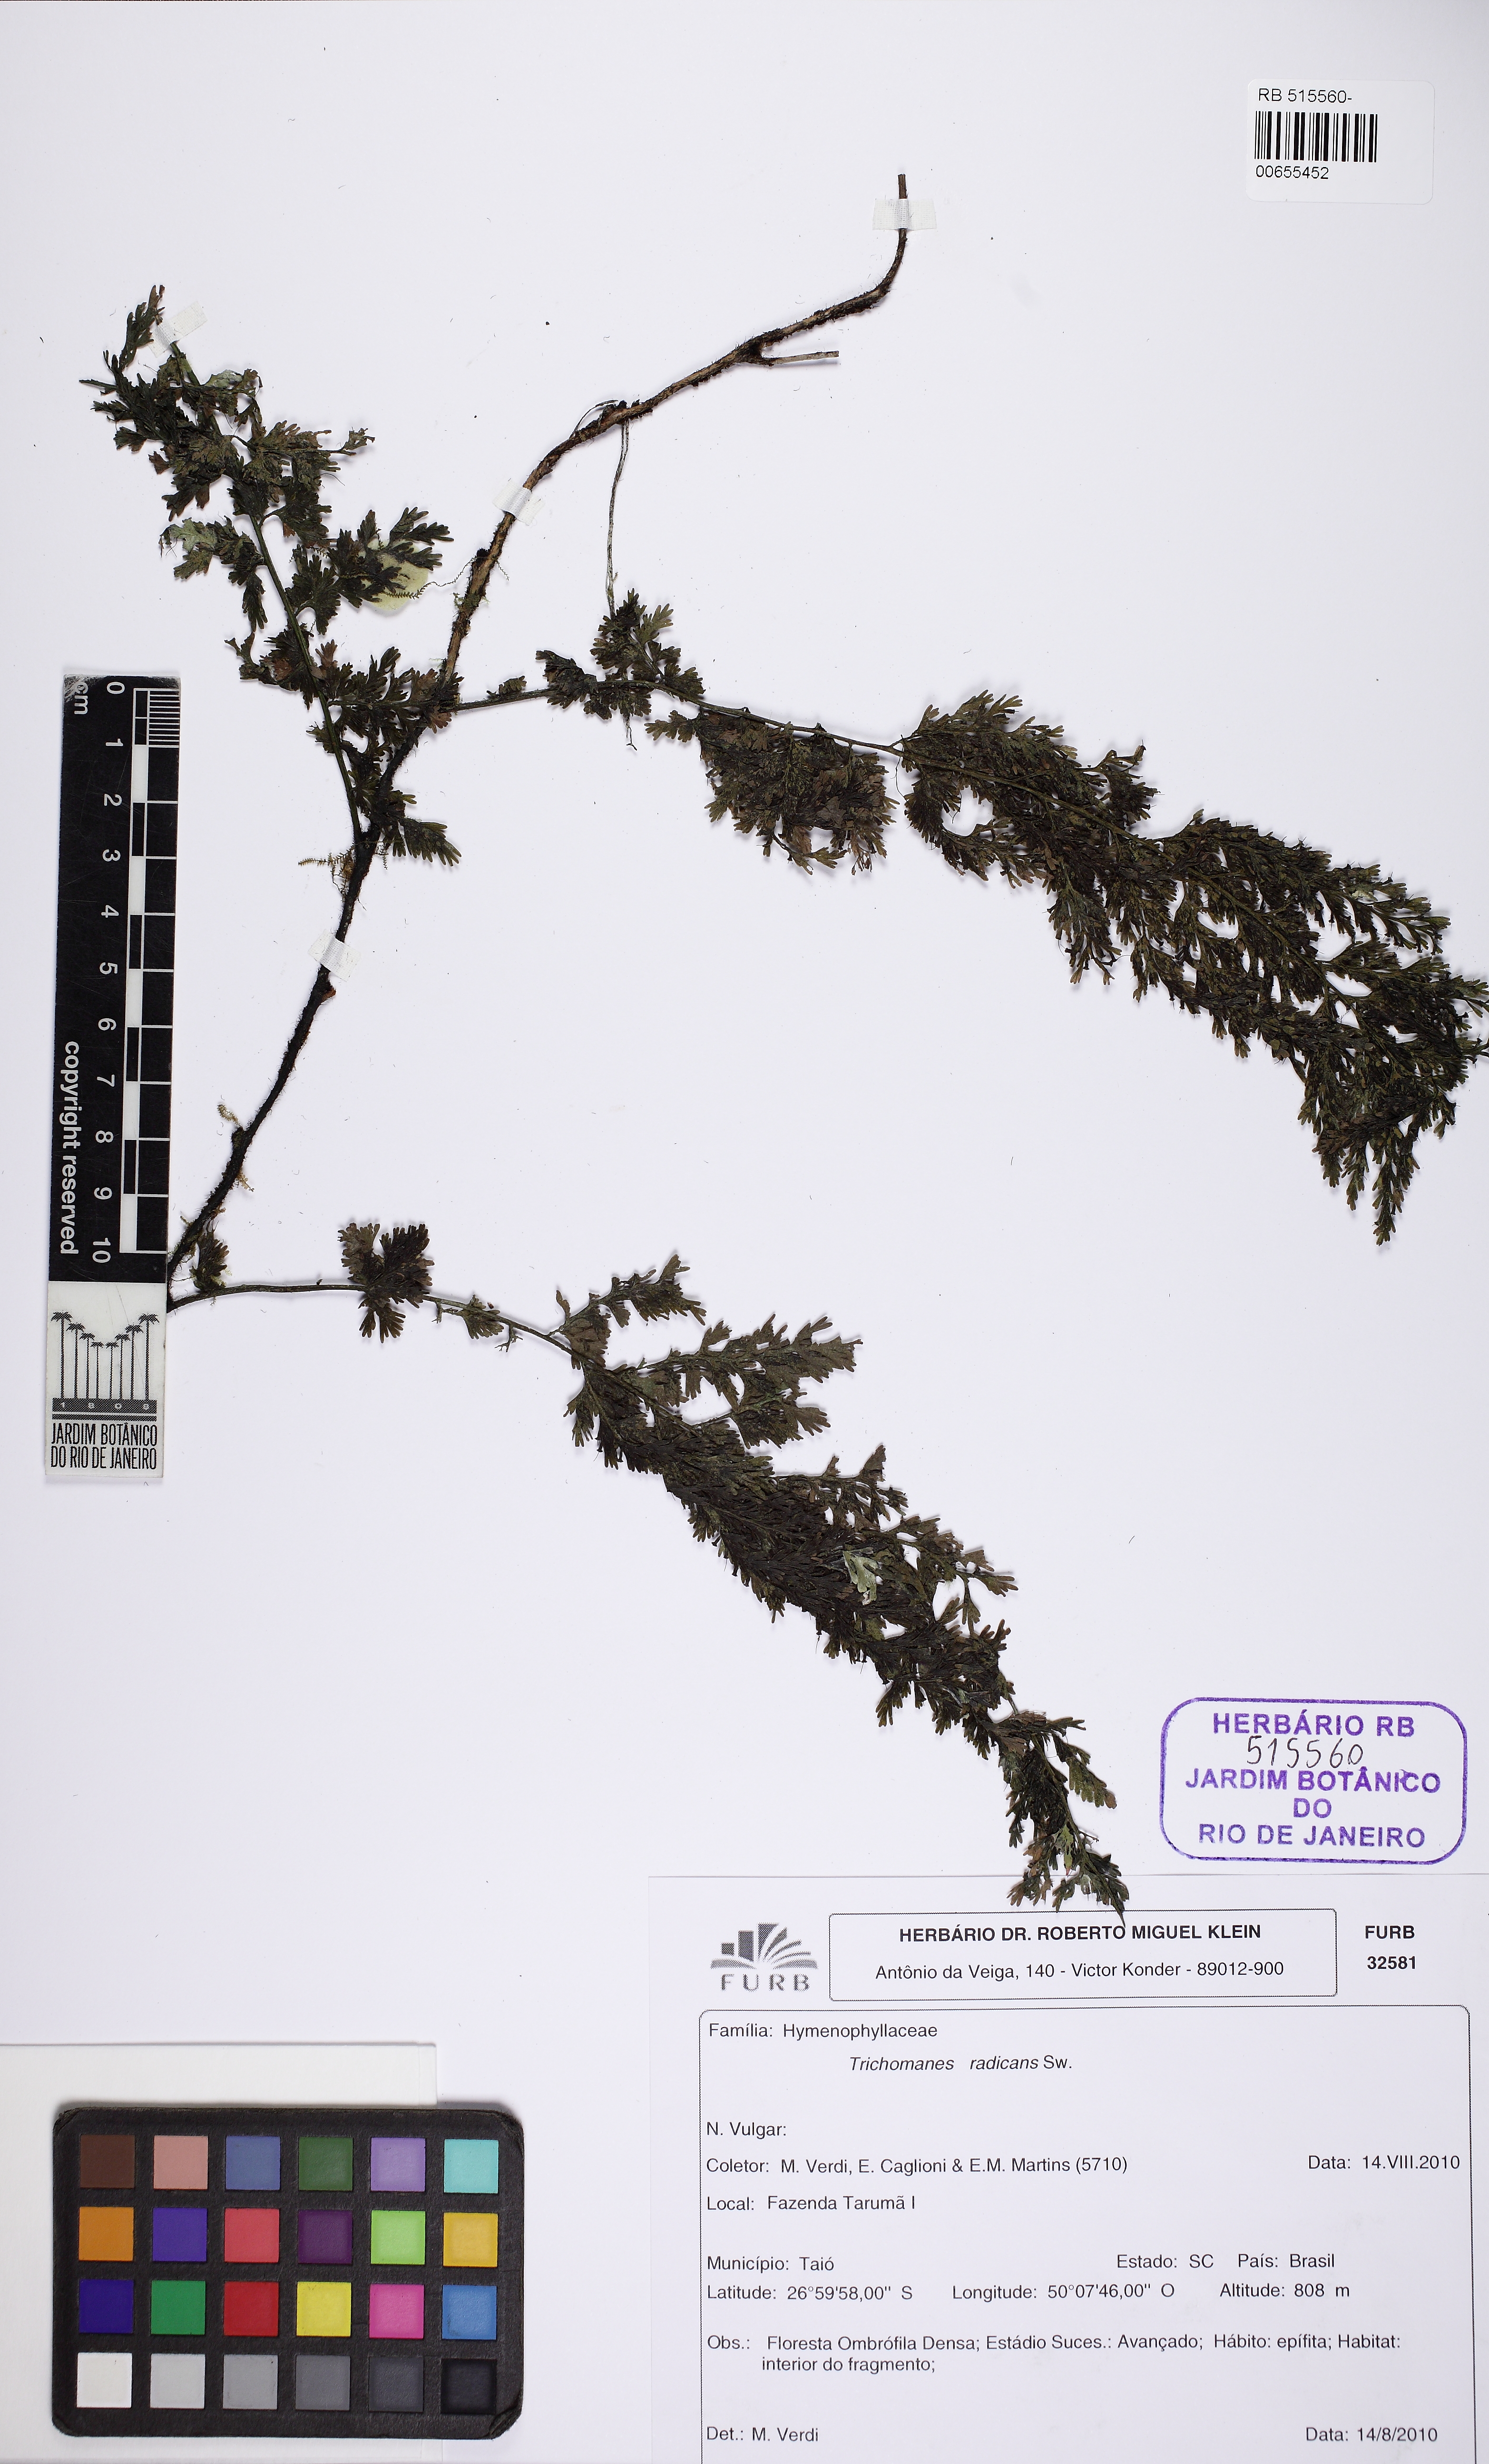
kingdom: Plantae
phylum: Tracheophyta
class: Polypodiopsida
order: Hymenophyllales
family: Hymenophyllaceae
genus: Vandenboschia
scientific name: Vandenboschia radicans
